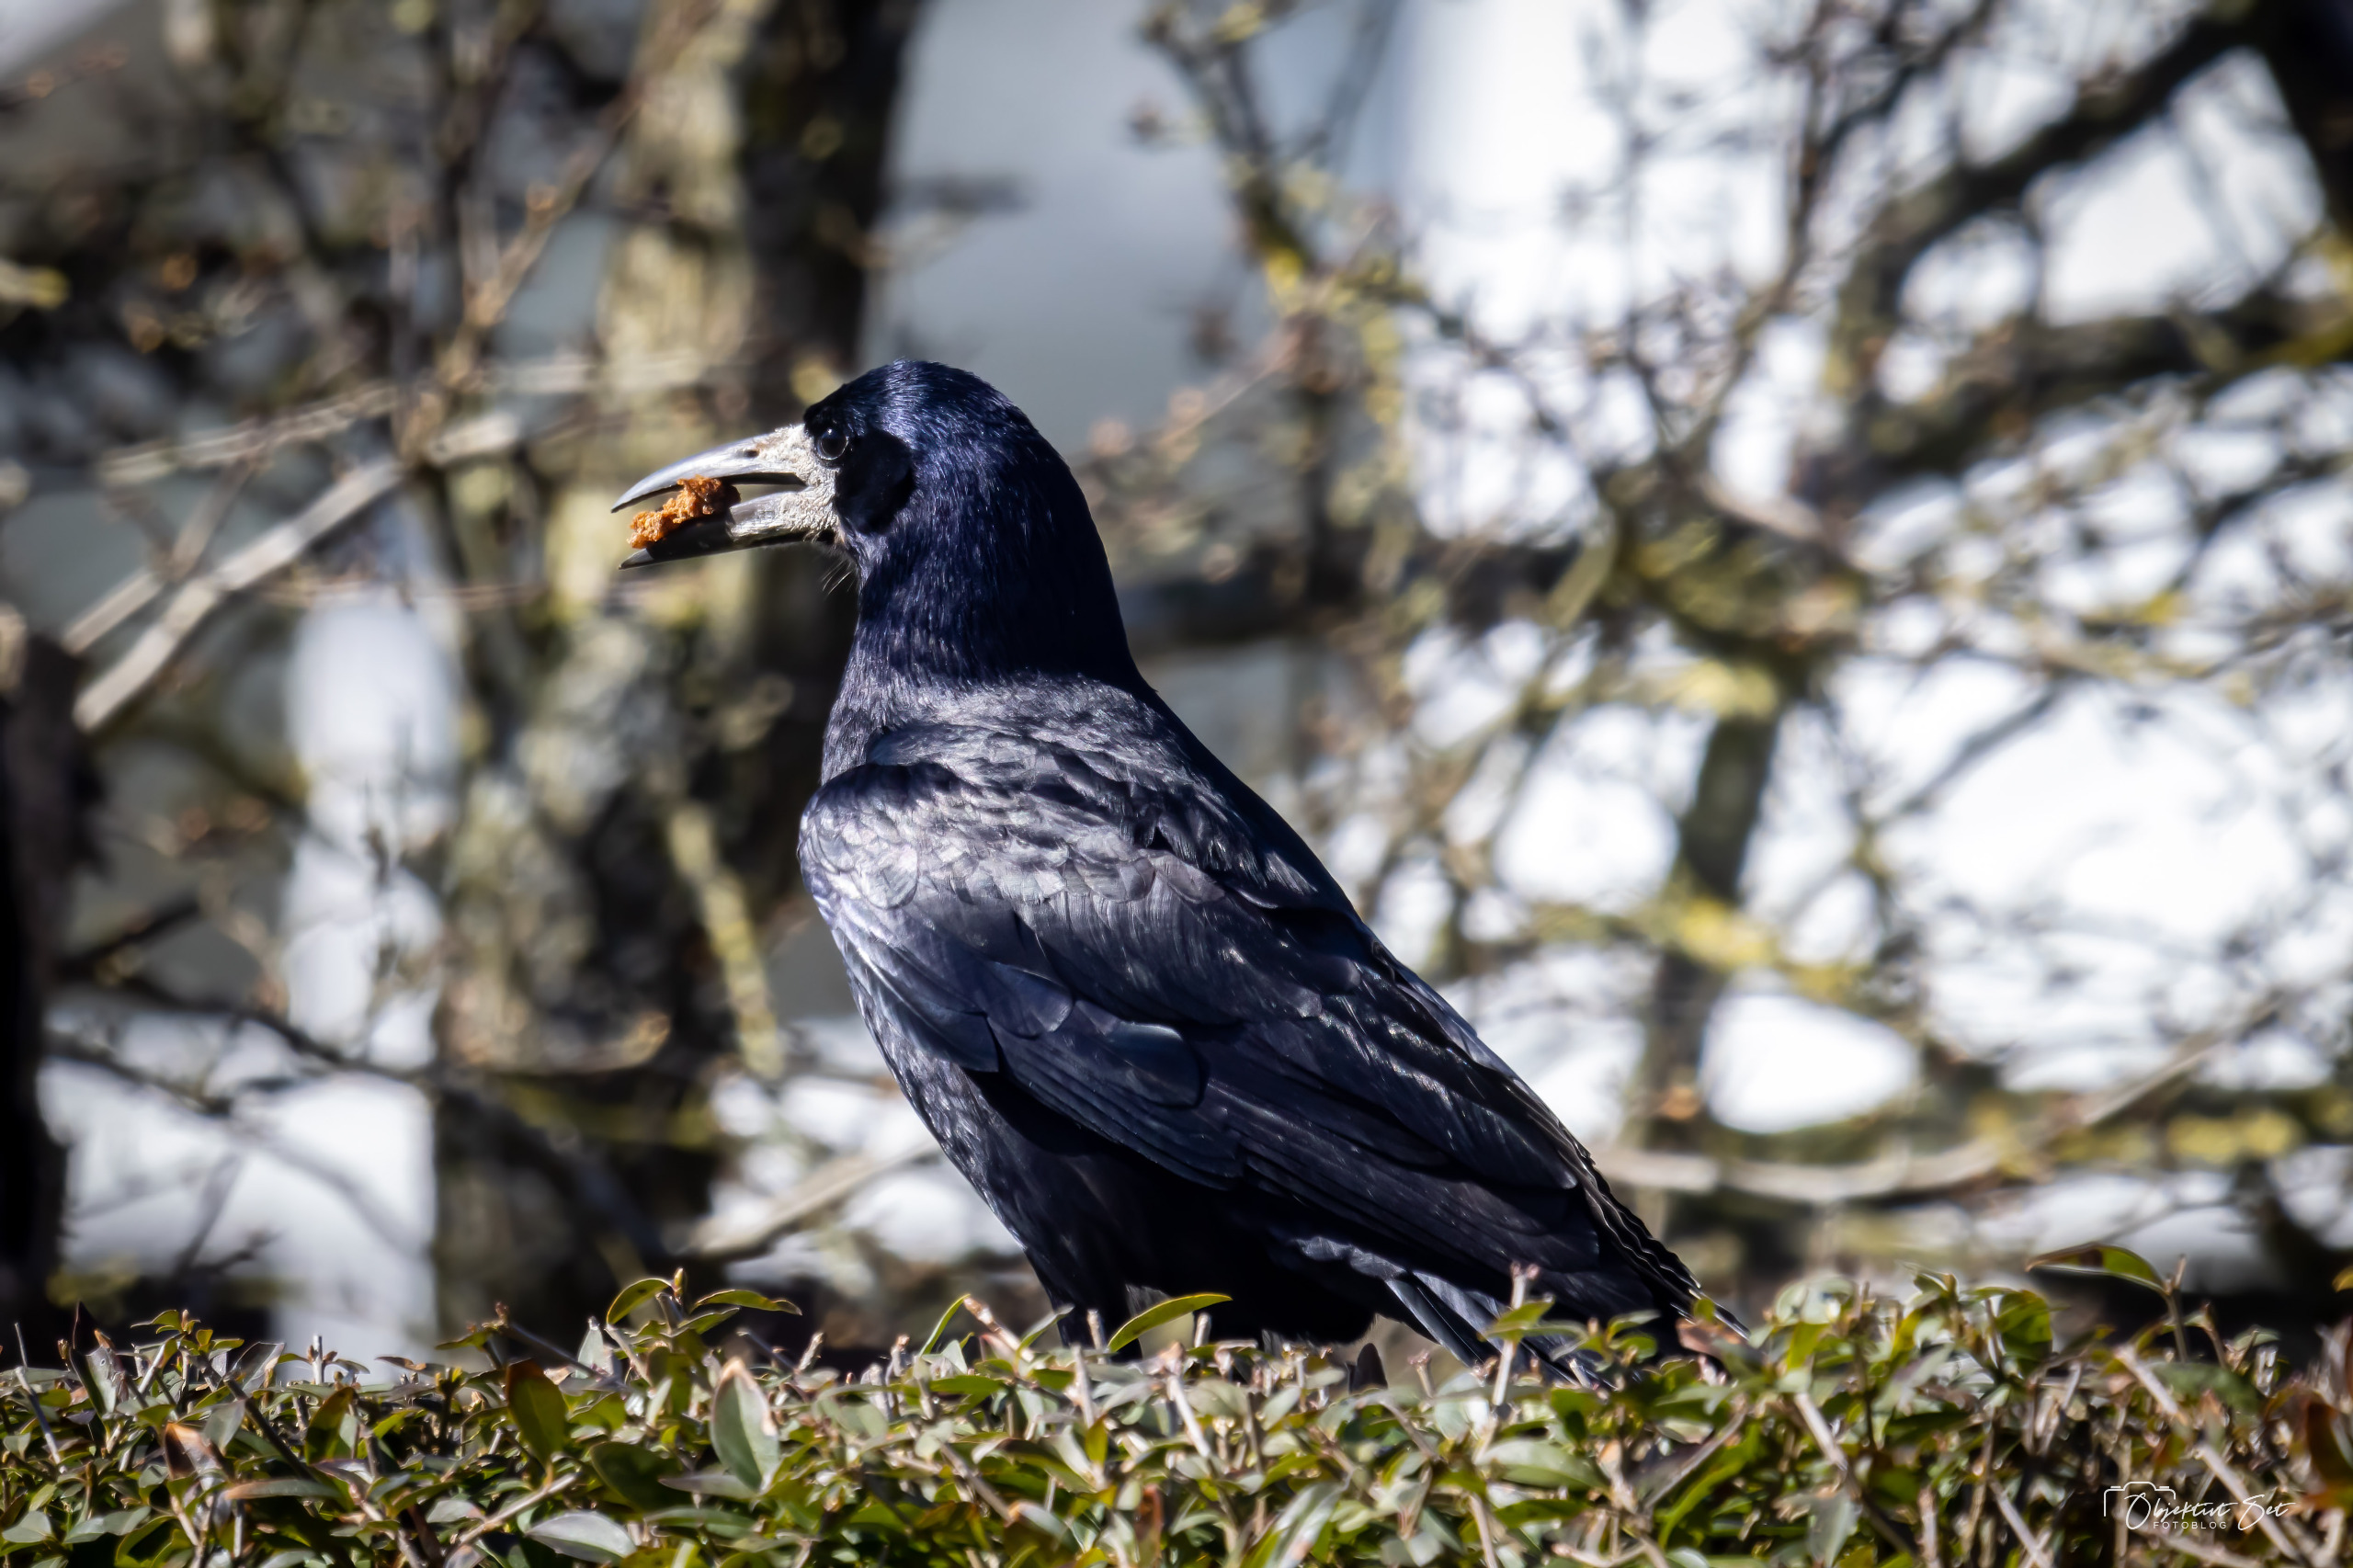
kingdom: Animalia
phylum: Chordata
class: Aves
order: Passeriformes
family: Corvidae
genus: Corvus
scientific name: Corvus frugilegus
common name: Råge
